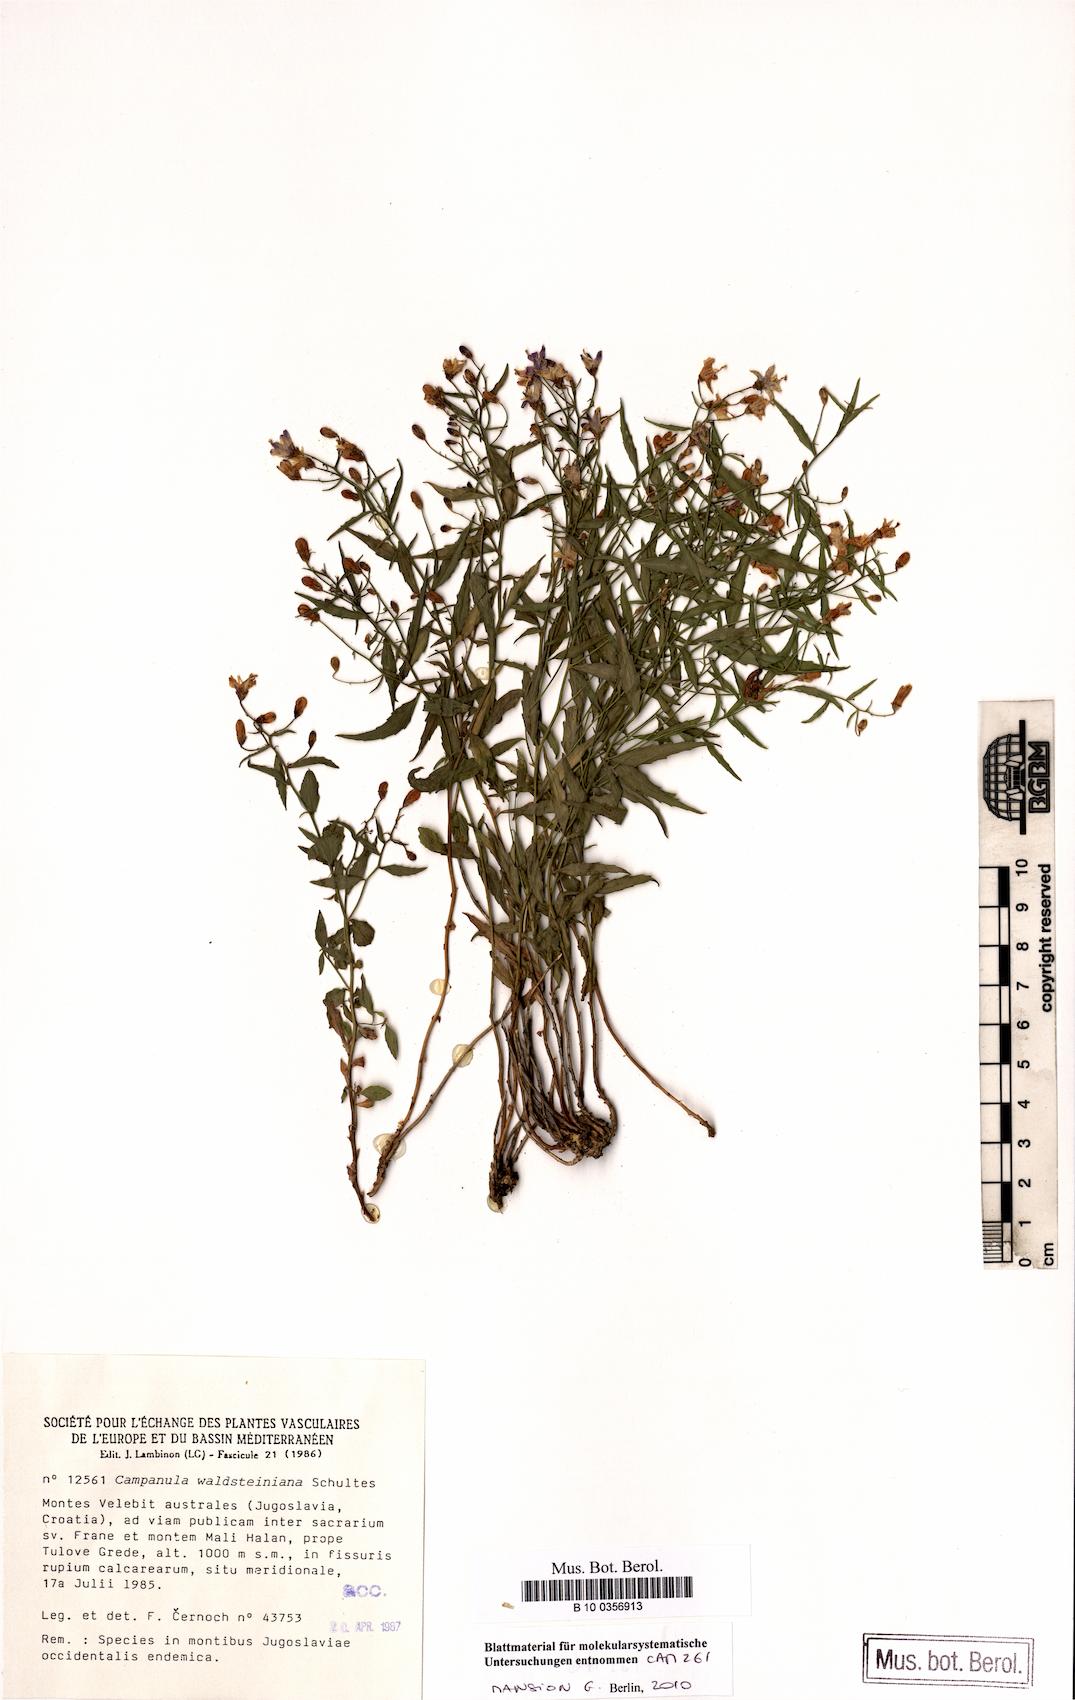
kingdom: Plantae
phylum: Tracheophyta
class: Magnoliopsida
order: Asterales
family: Campanulaceae
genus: Campanula
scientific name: Campanula waldsteiniana
